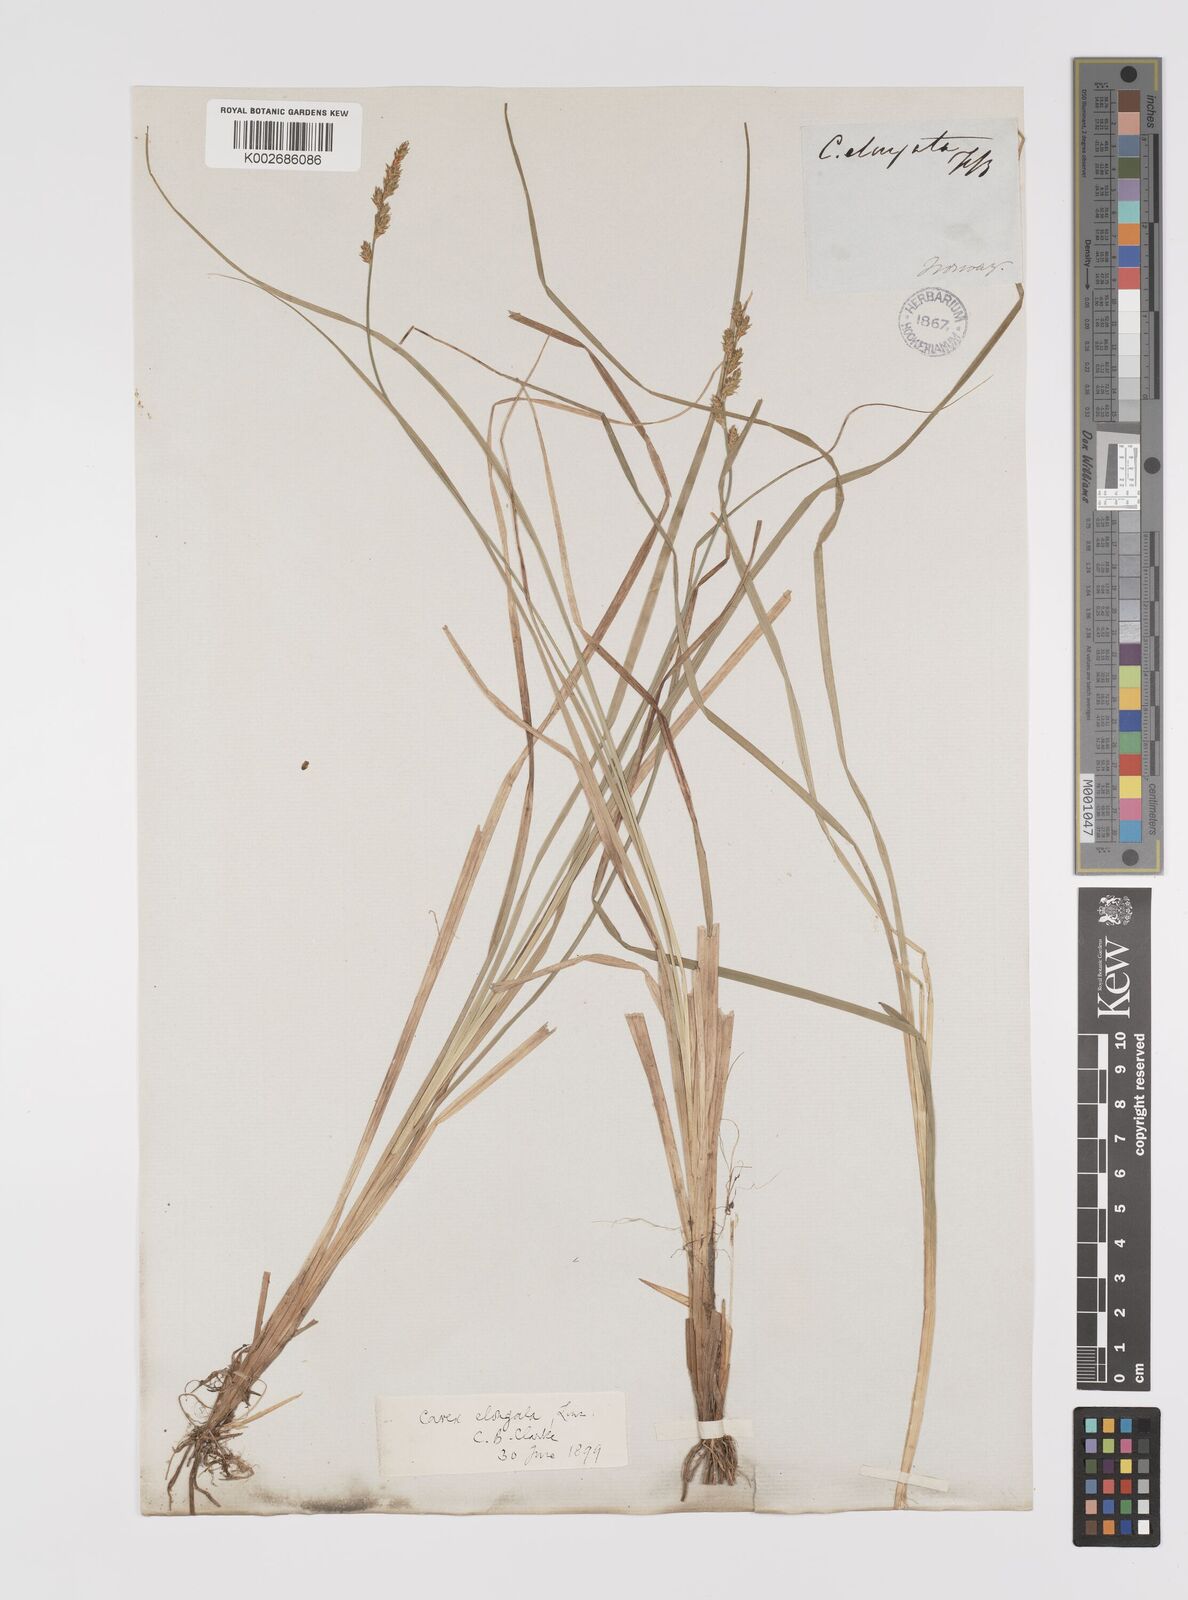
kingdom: Plantae
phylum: Tracheophyta
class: Liliopsida
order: Poales
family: Cyperaceae
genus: Carex
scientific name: Carex elongata
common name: Elongated sedge
